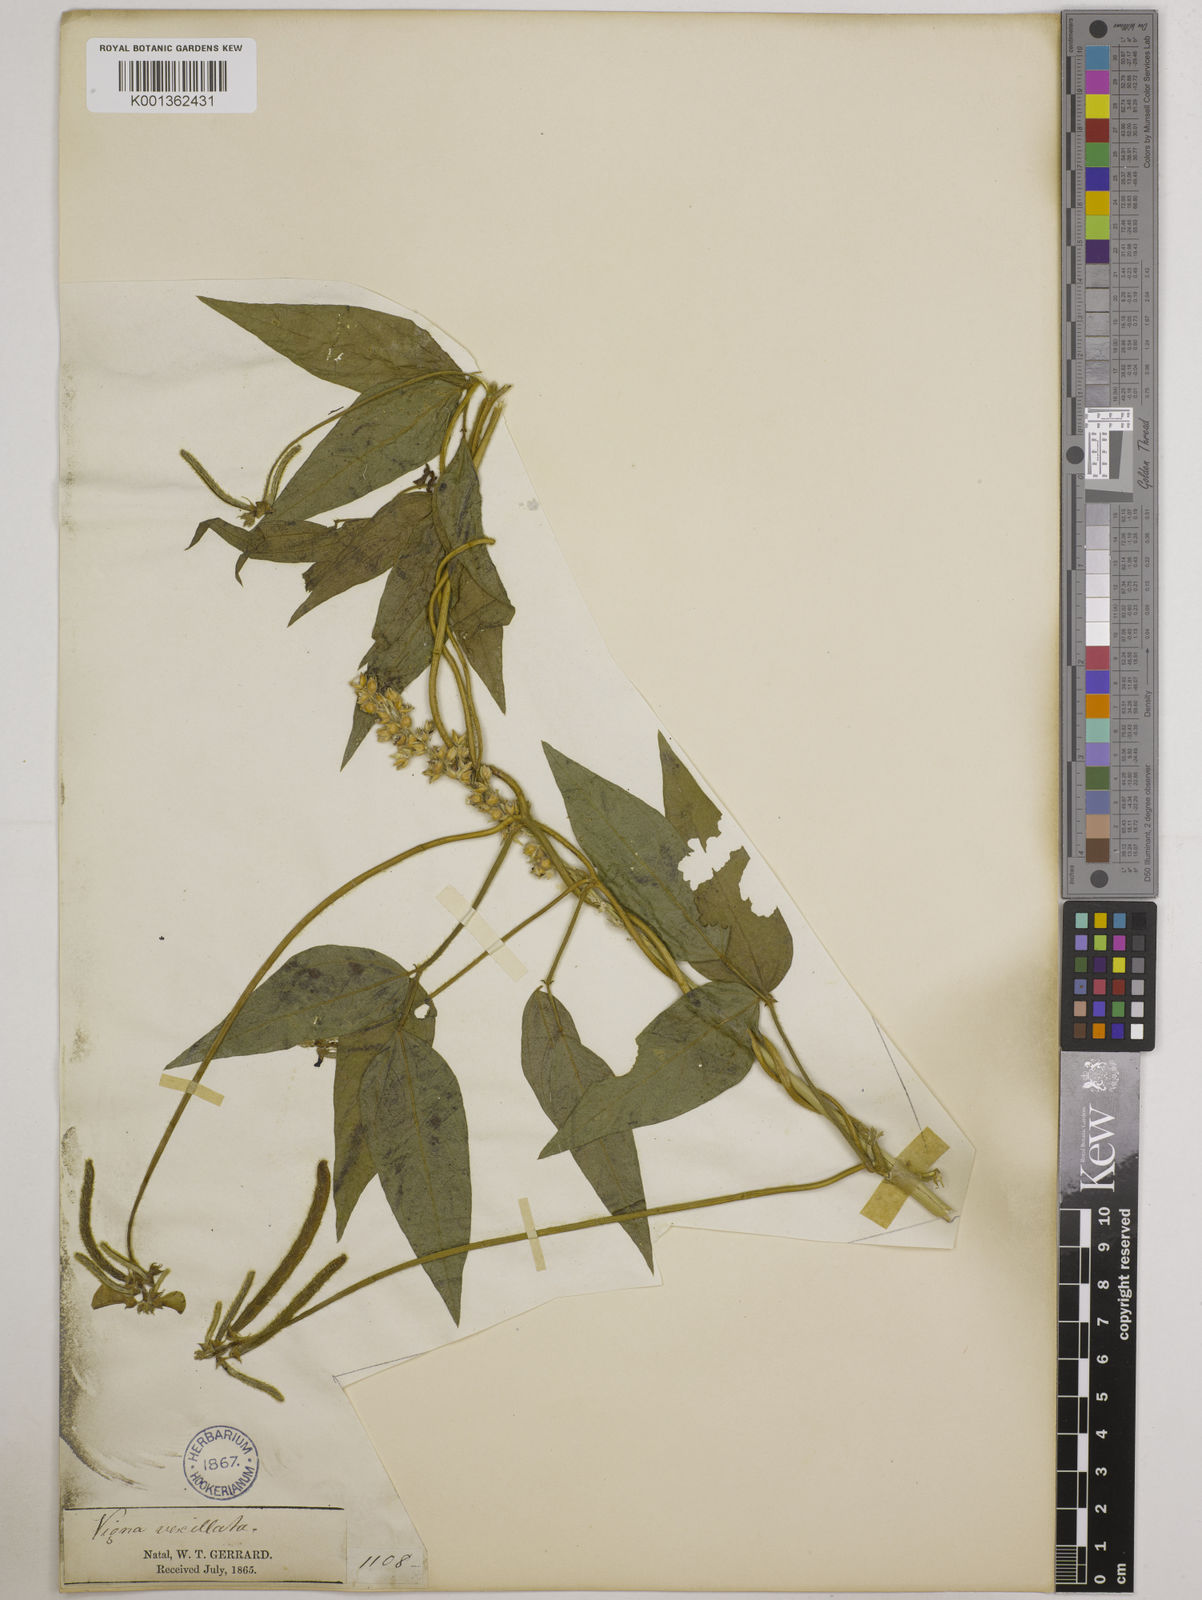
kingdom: Plantae
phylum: Tracheophyta
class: Magnoliopsida
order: Fabales
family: Fabaceae
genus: Vigna
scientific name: Vigna luteola
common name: Hairypod cowpea
